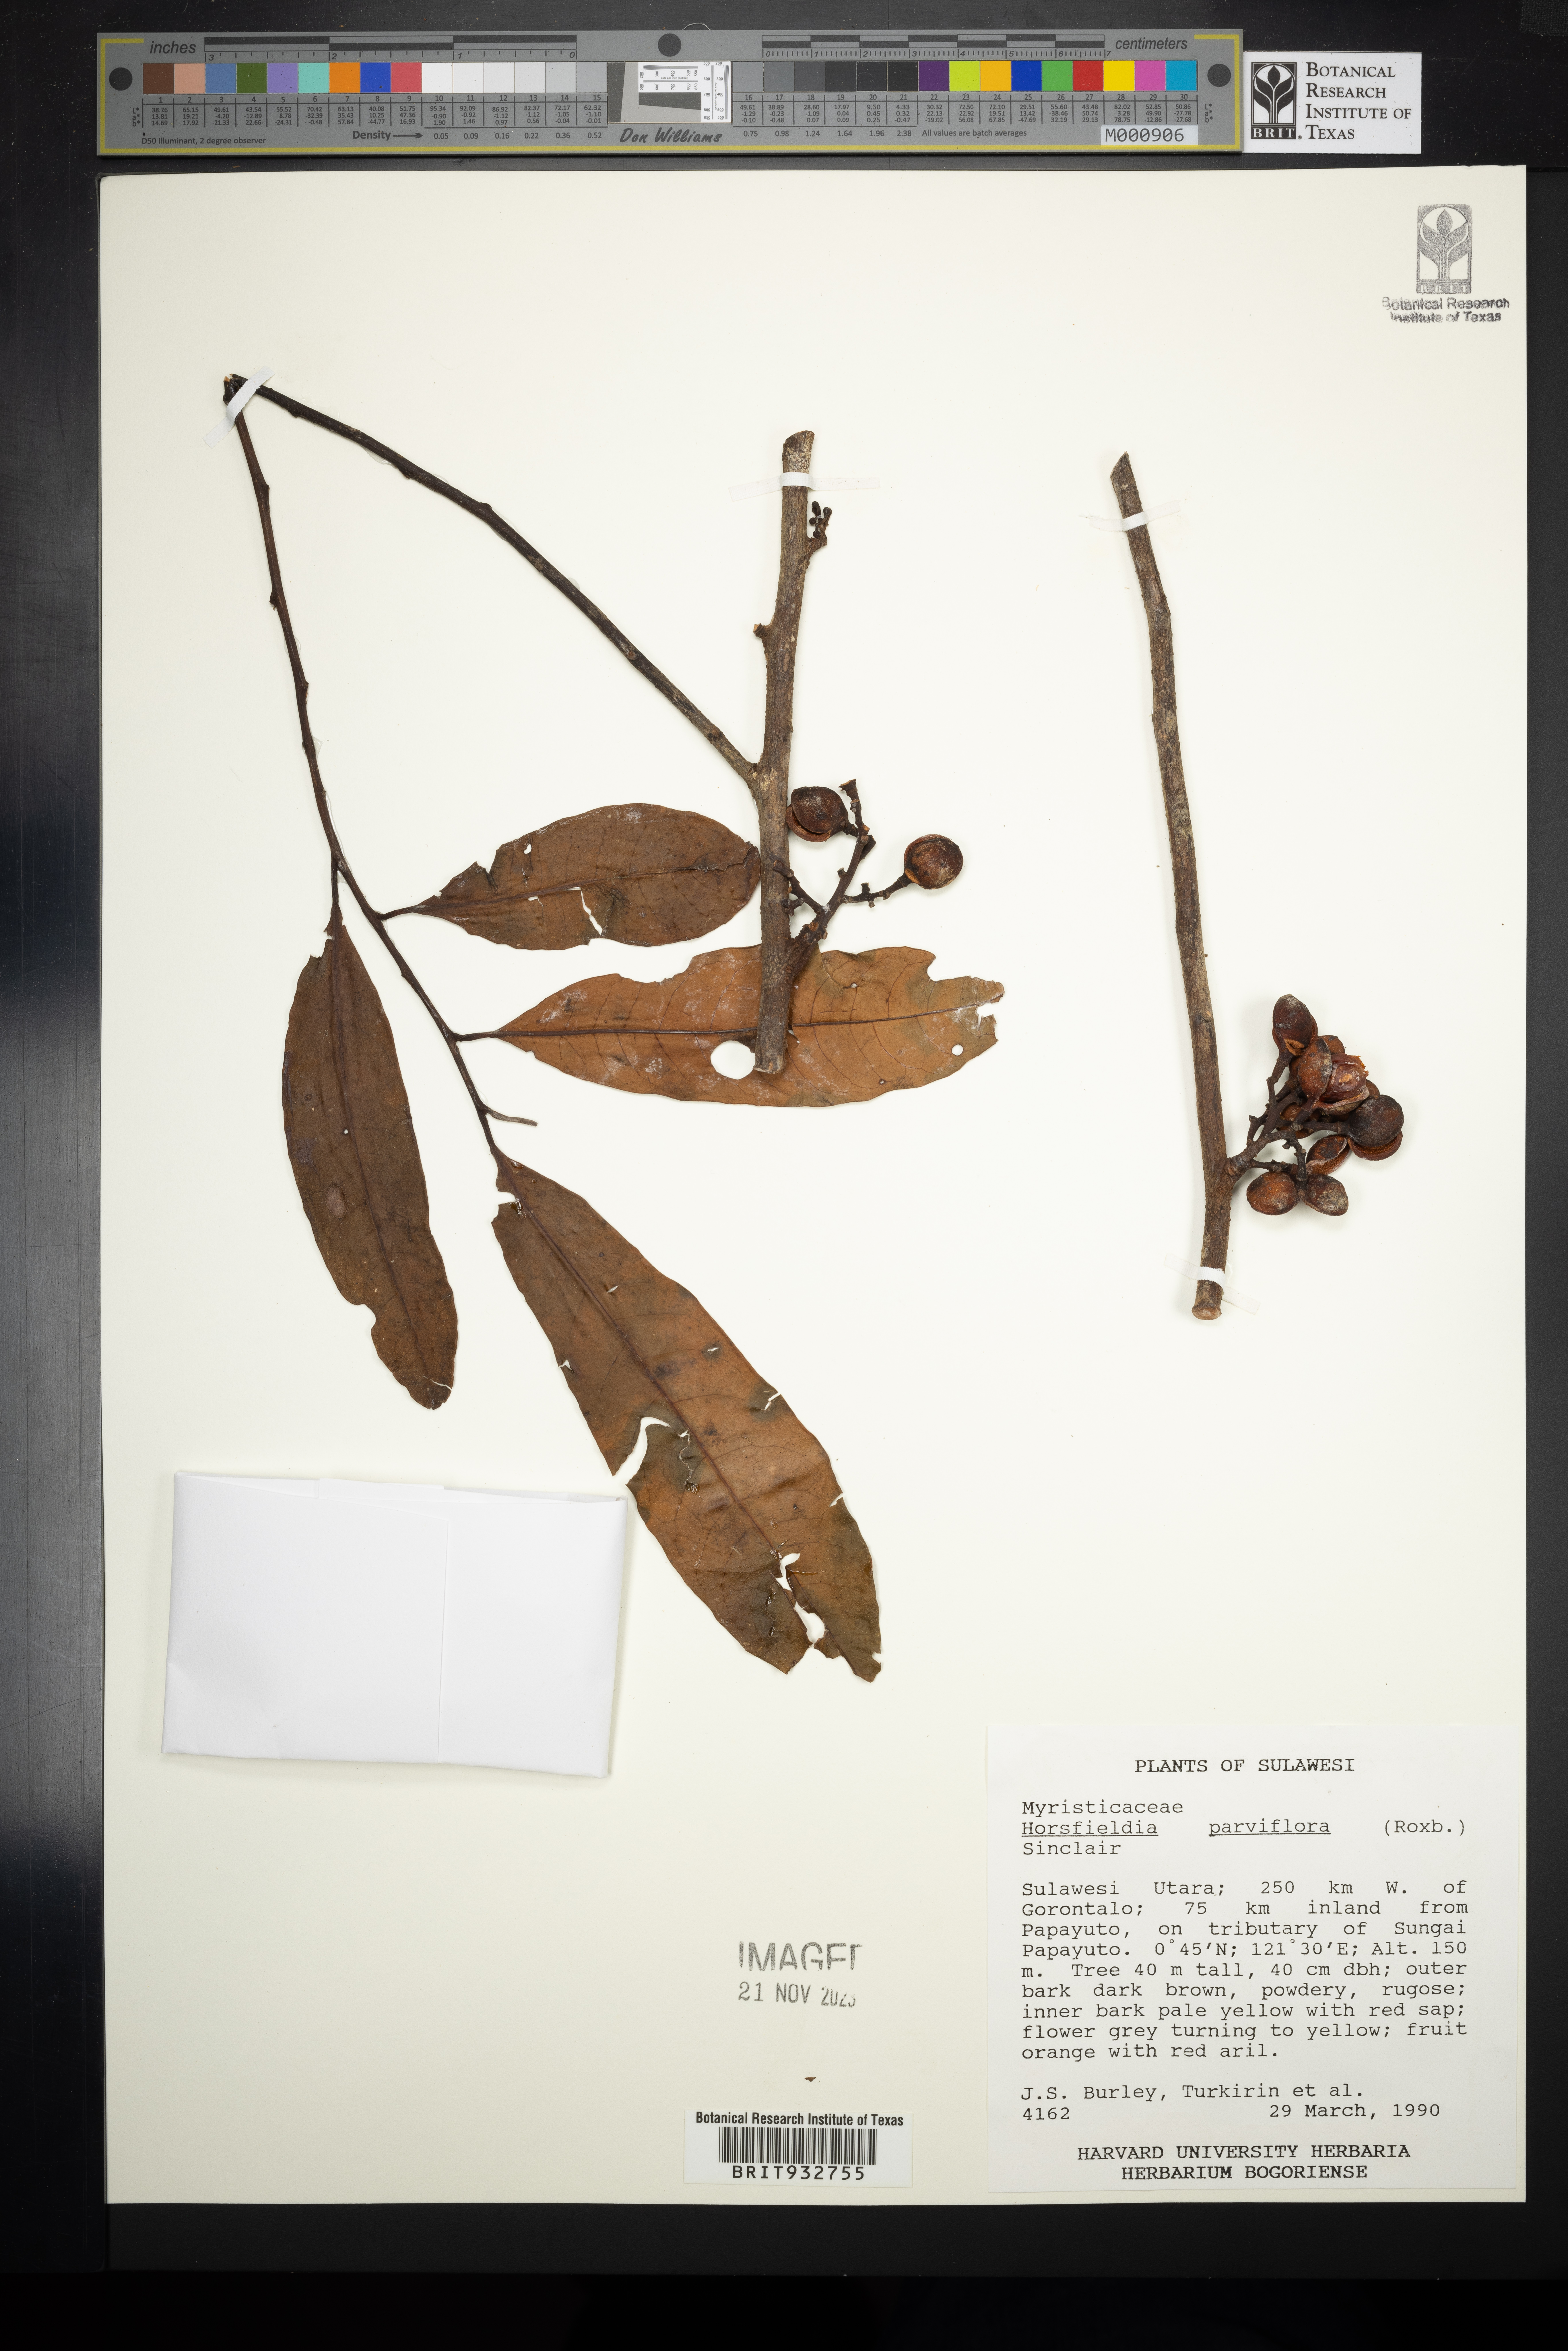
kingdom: Plantae
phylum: Tracheophyta
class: Magnoliopsida
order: Magnoliales
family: Myristicaceae
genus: Horsfieldia
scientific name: Horsfieldia
